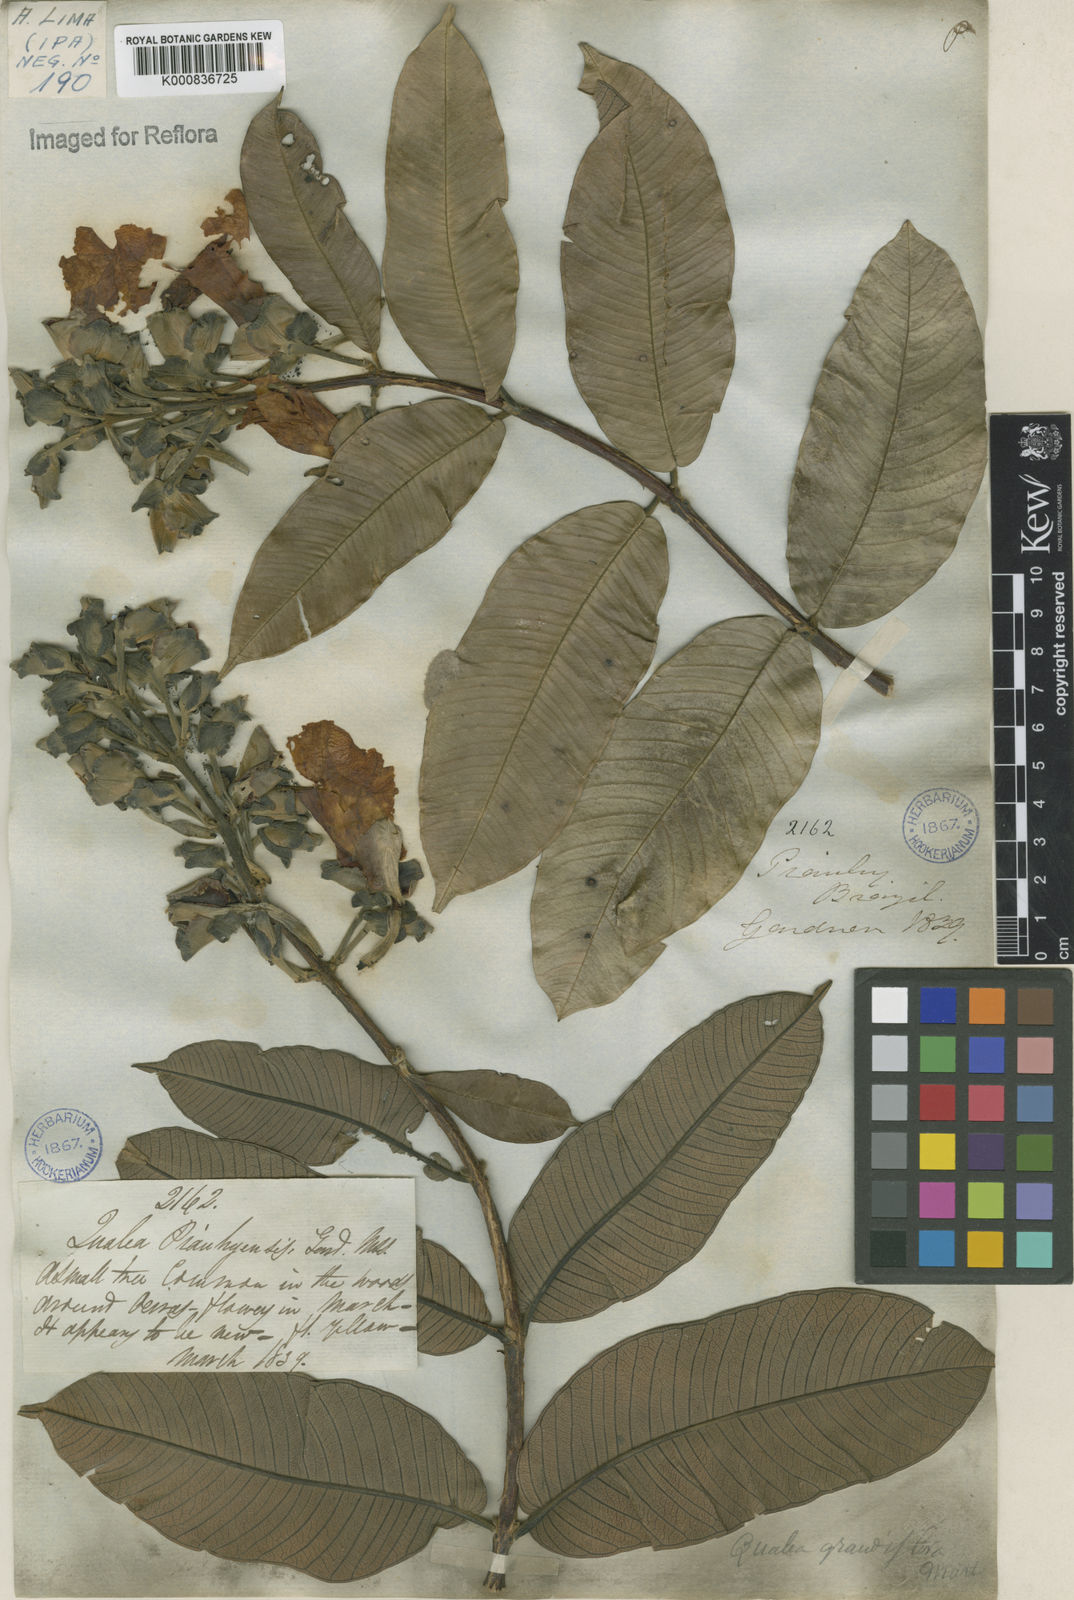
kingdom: Plantae
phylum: Tracheophyta
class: Magnoliopsida
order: Myrtales
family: Vochysiaceae
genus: Qualea
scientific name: Qualea grandiflora
